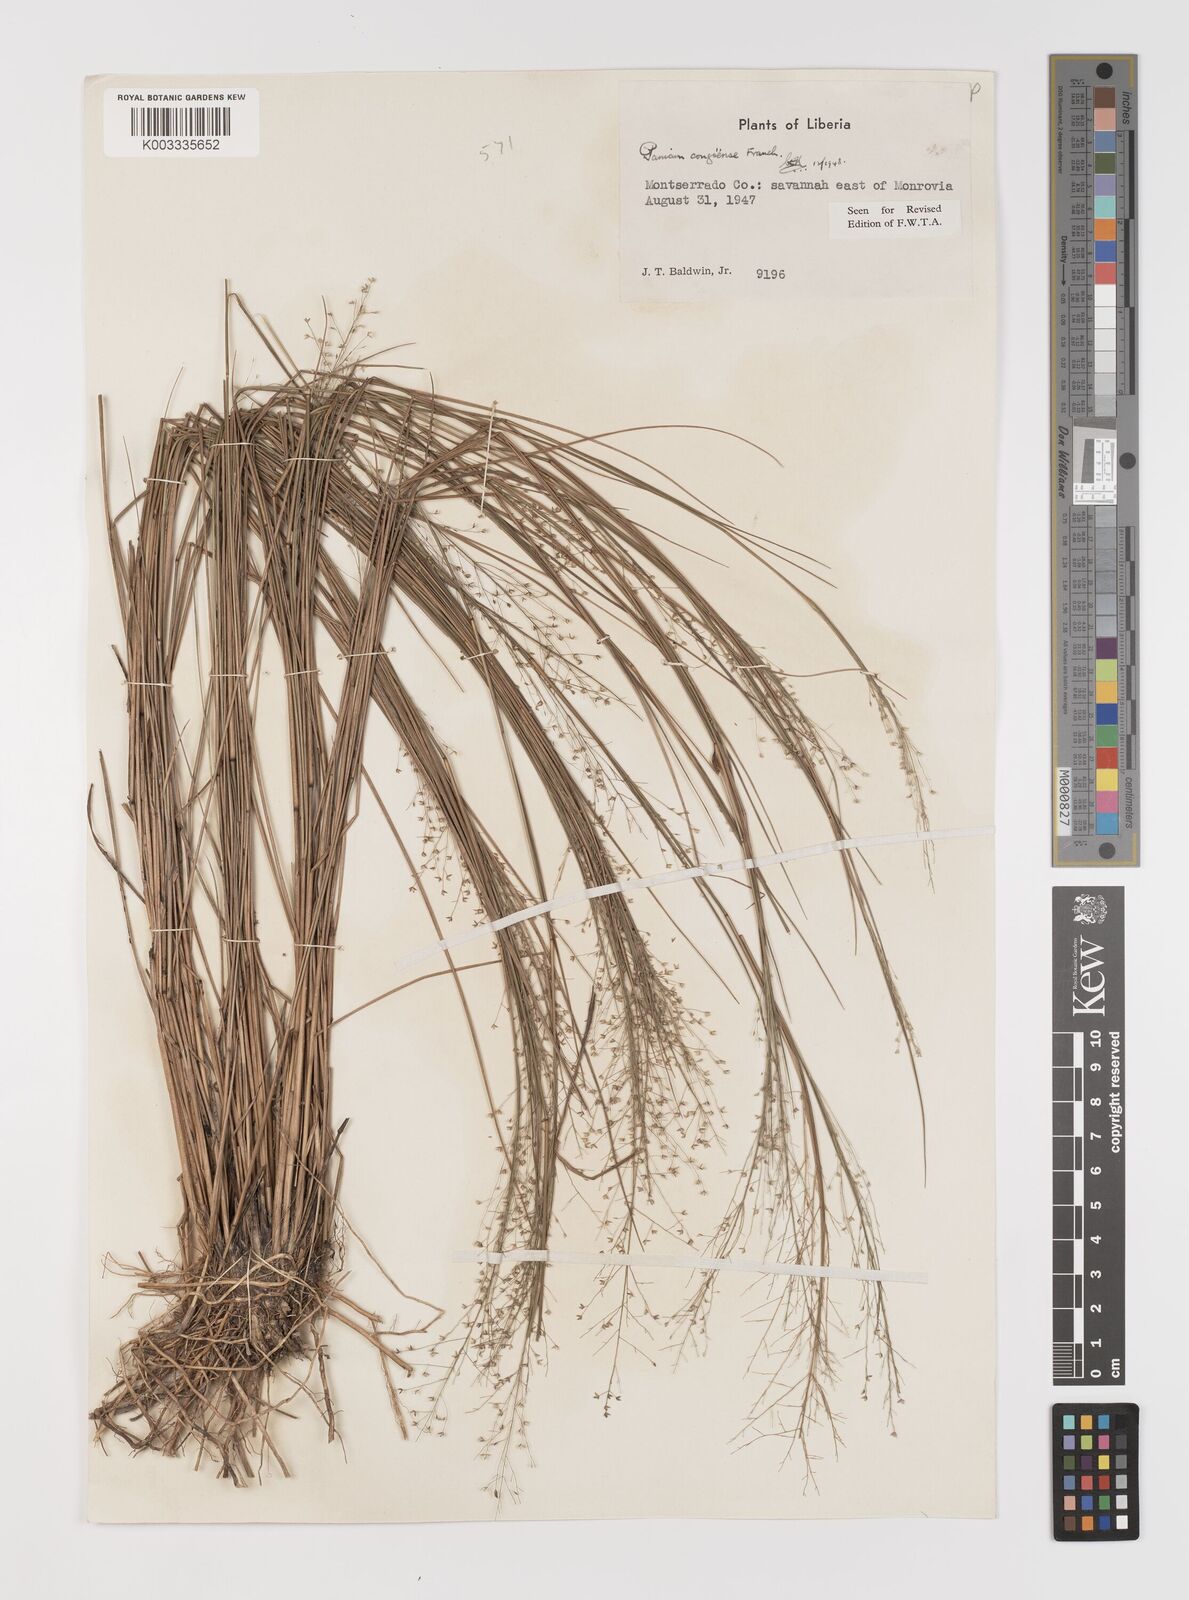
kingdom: Plantae
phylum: Tracheophyta
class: Liliopsida
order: Poales
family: Poaceae
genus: Panicum
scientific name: Panicum congoense
